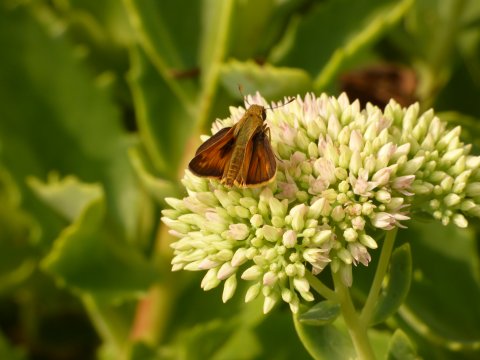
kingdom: Animalia
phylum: Arthropoda
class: Insecta
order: Lepidoptera
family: Hesperiidae
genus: Atalopedes
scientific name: Atalopedes campestris
